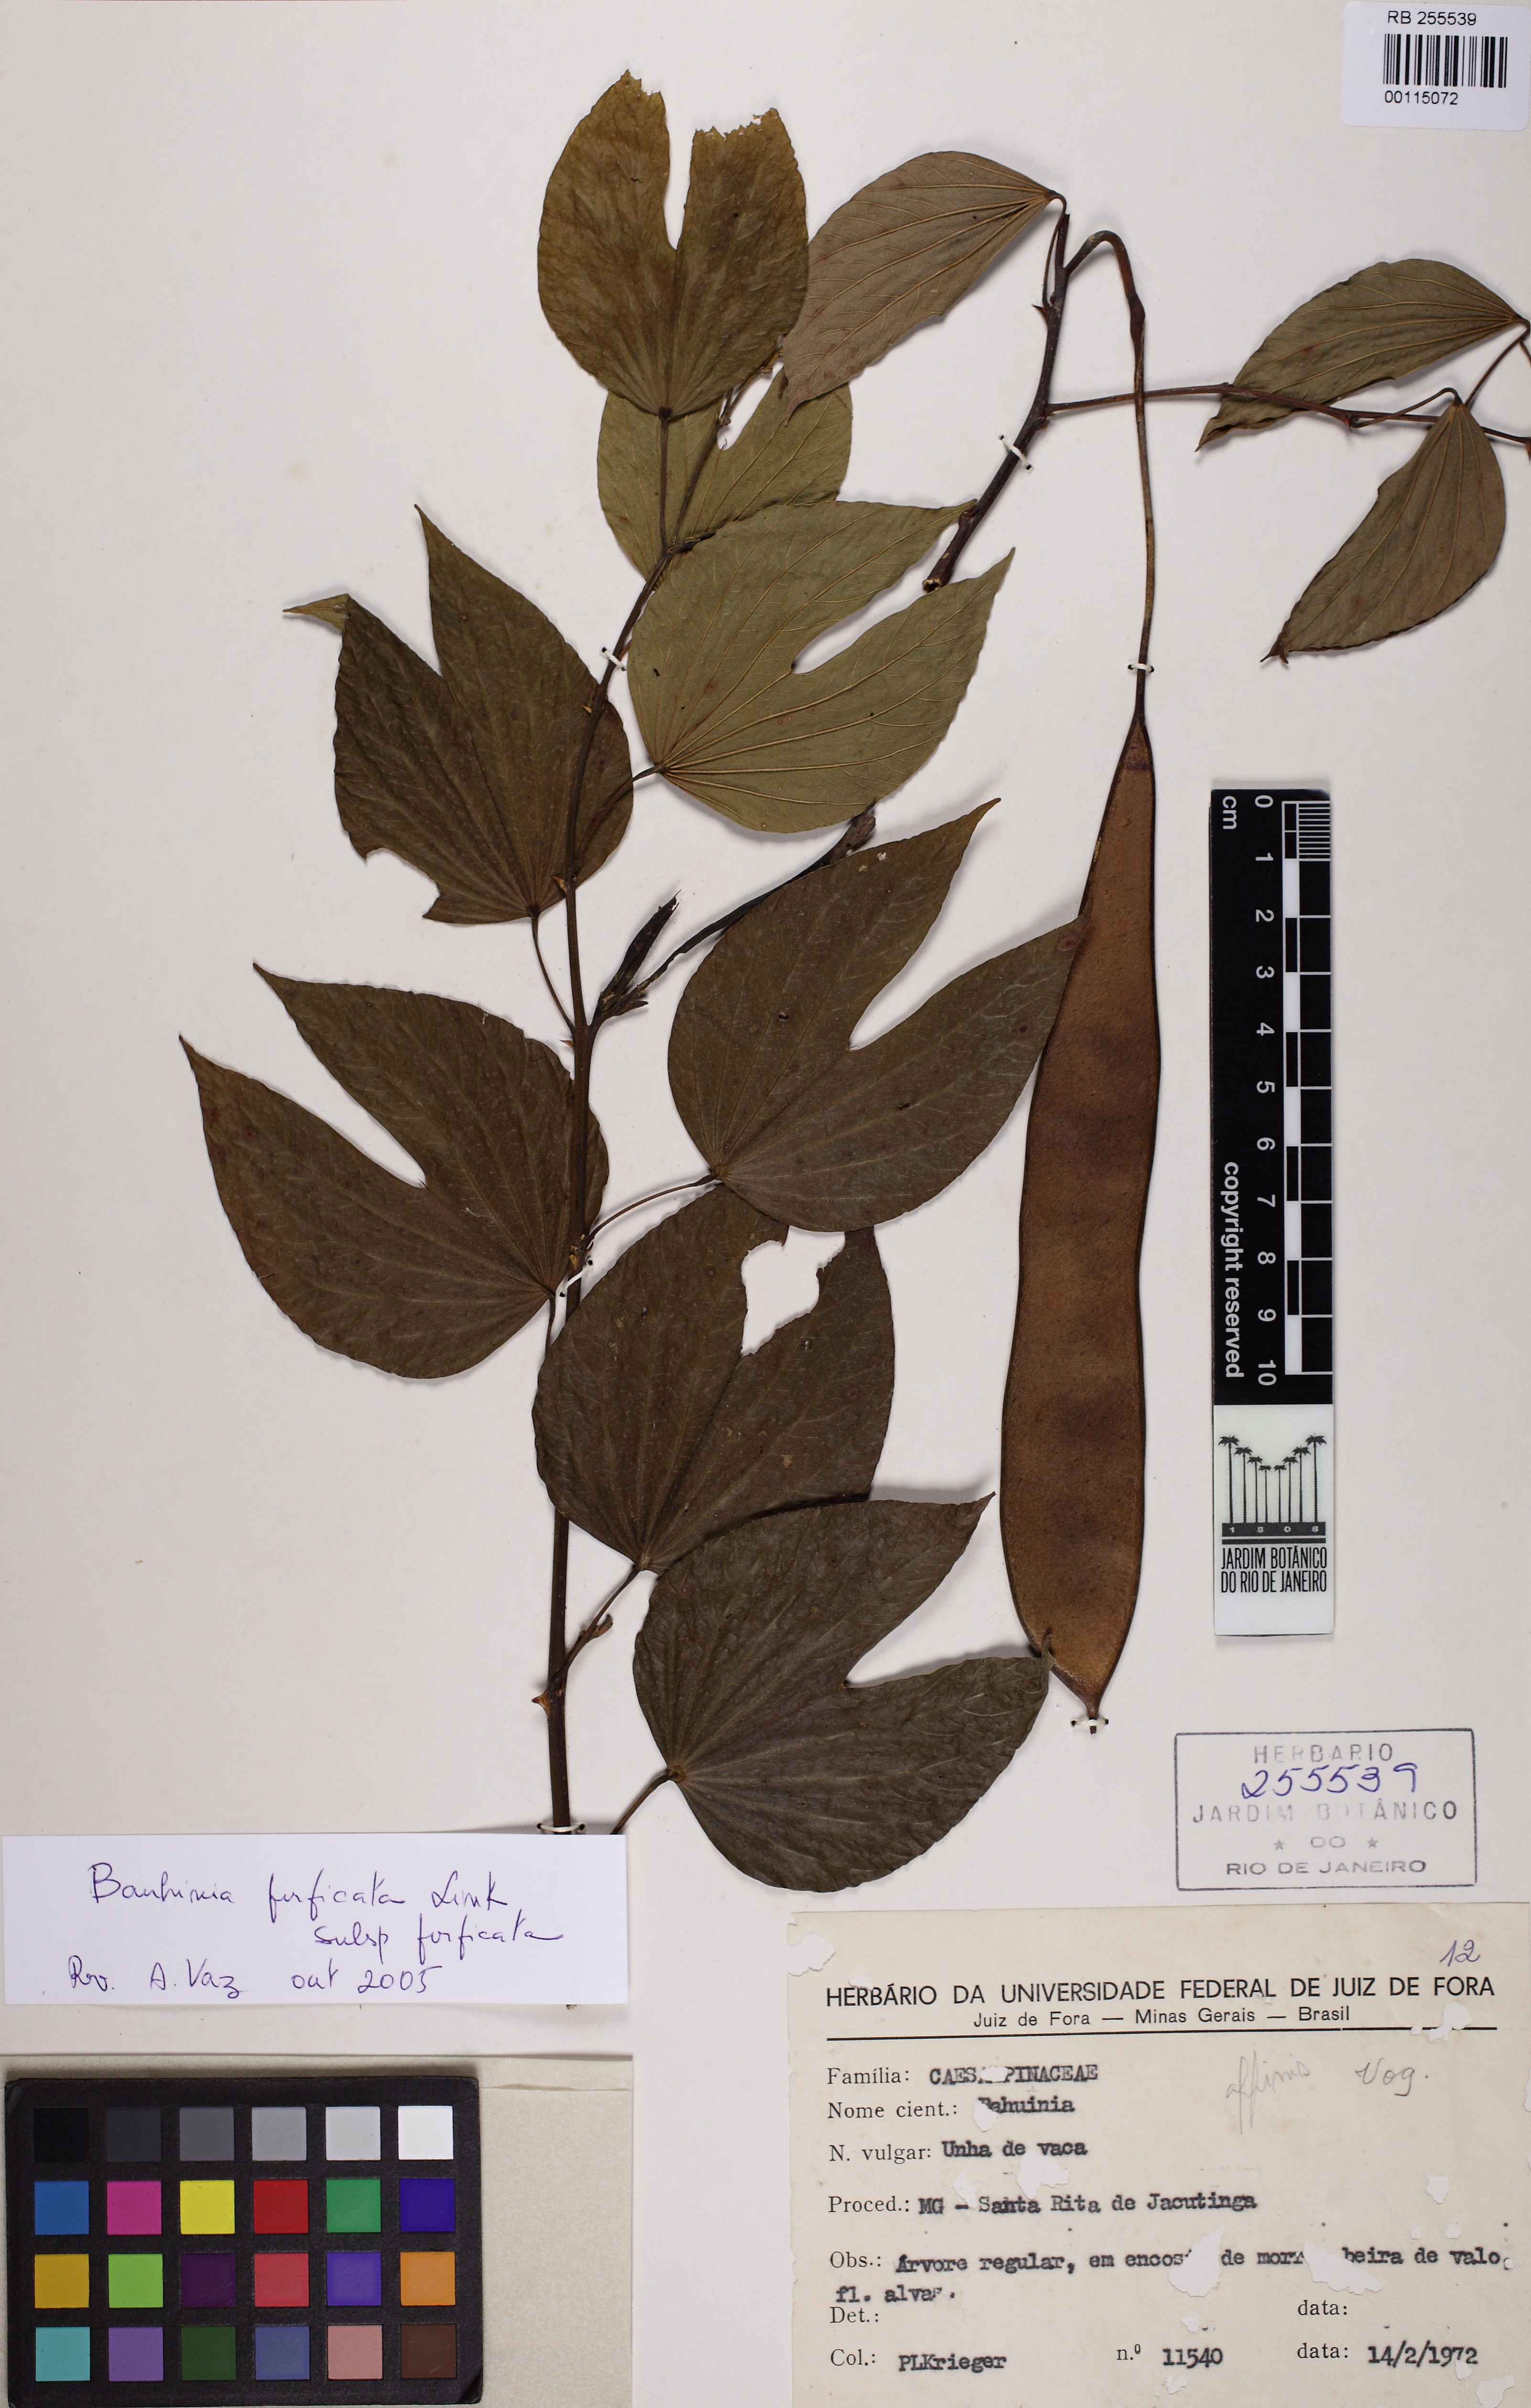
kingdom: Plantae
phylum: Tracheophyta
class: Magnoliopsida
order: Fabales
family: Fabaceae
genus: Bauhinia
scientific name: Bauhinia affinis
